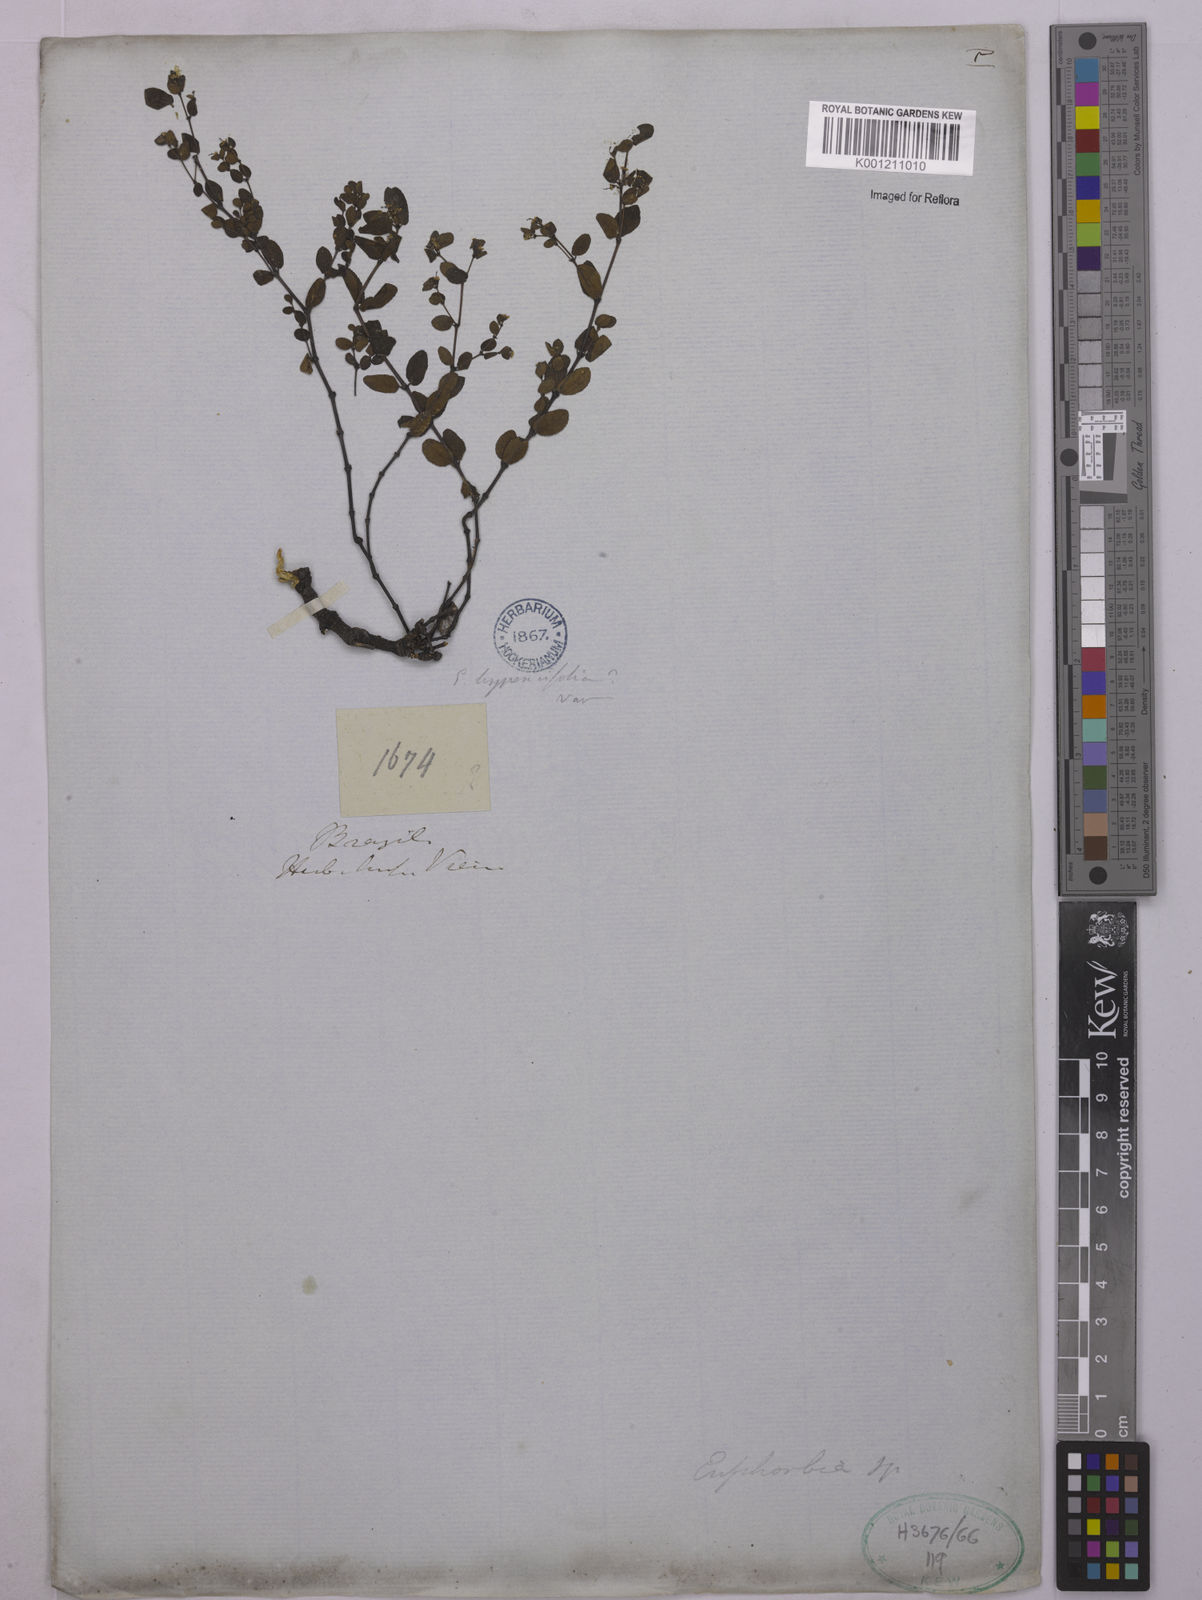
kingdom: Plantae
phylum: Tracheophyta
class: Magnoliopsida
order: Malpighiales
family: Euphorbiaceae
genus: Euphorbia
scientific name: Euphorbia
